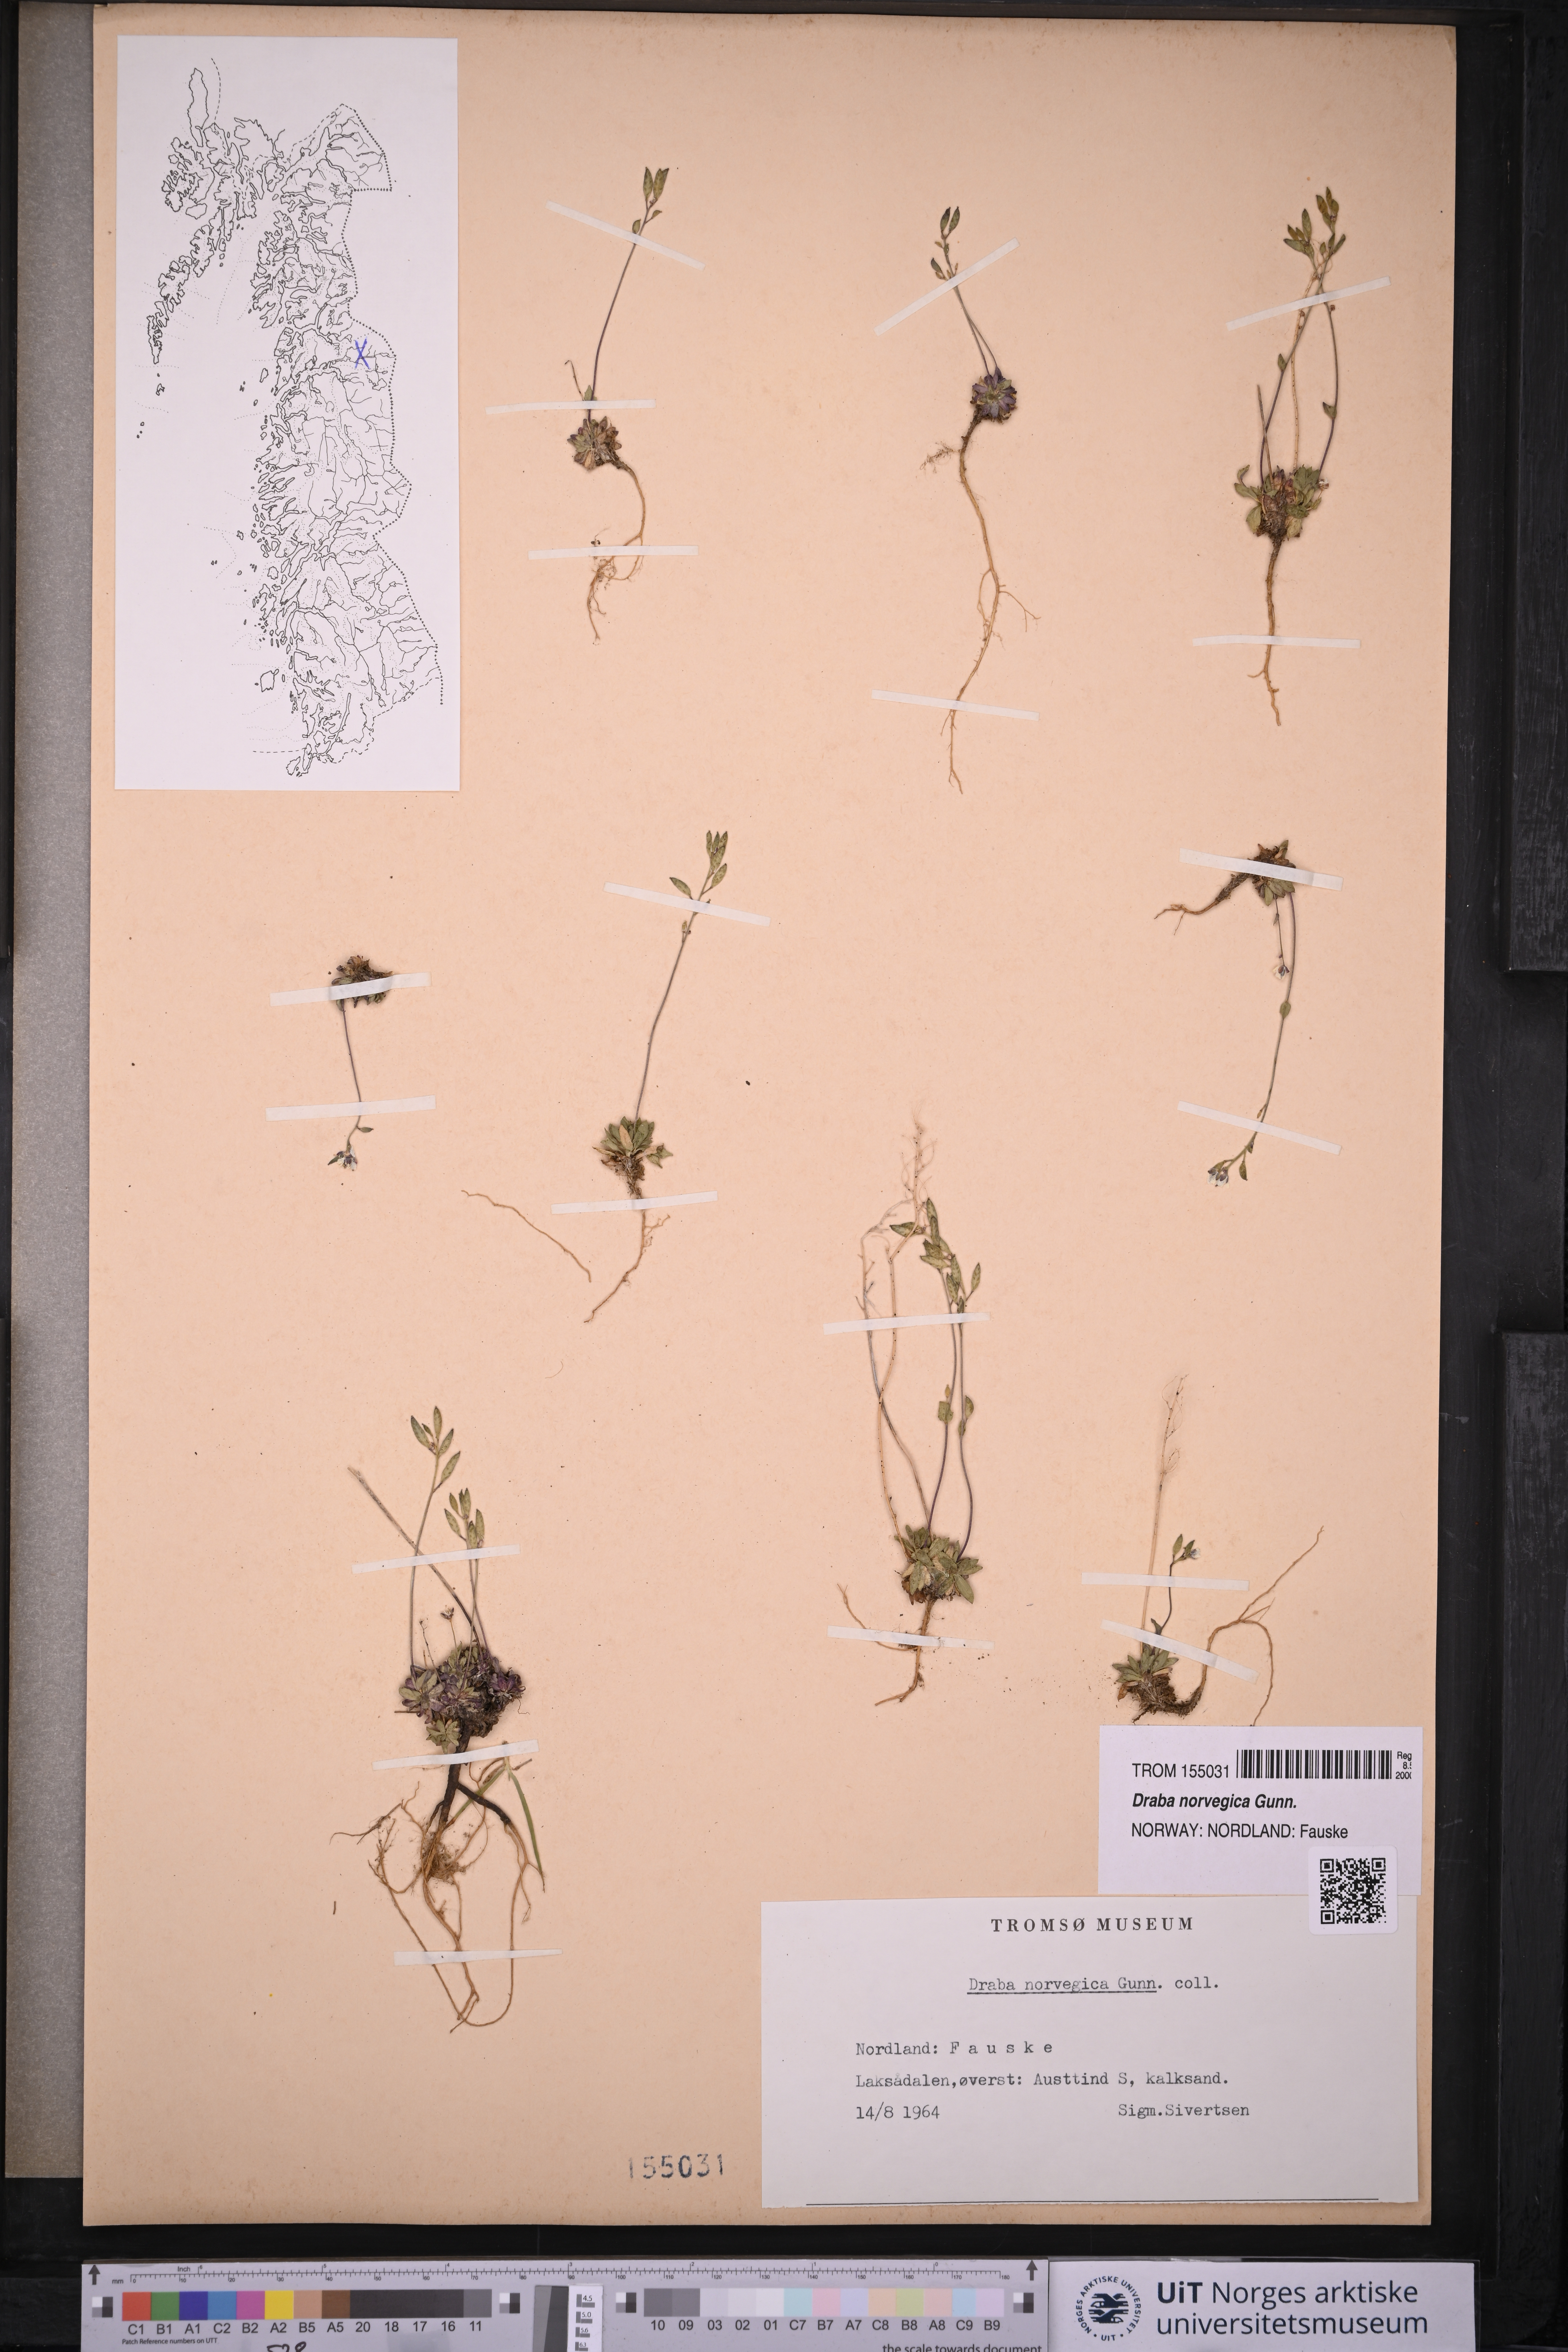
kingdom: Plantae
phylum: Tracheophyta
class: Magnoliopsida
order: Brassicales
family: Brassicaceae
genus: Draba
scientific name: Draba norvegica
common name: Rock whitlowgrass
